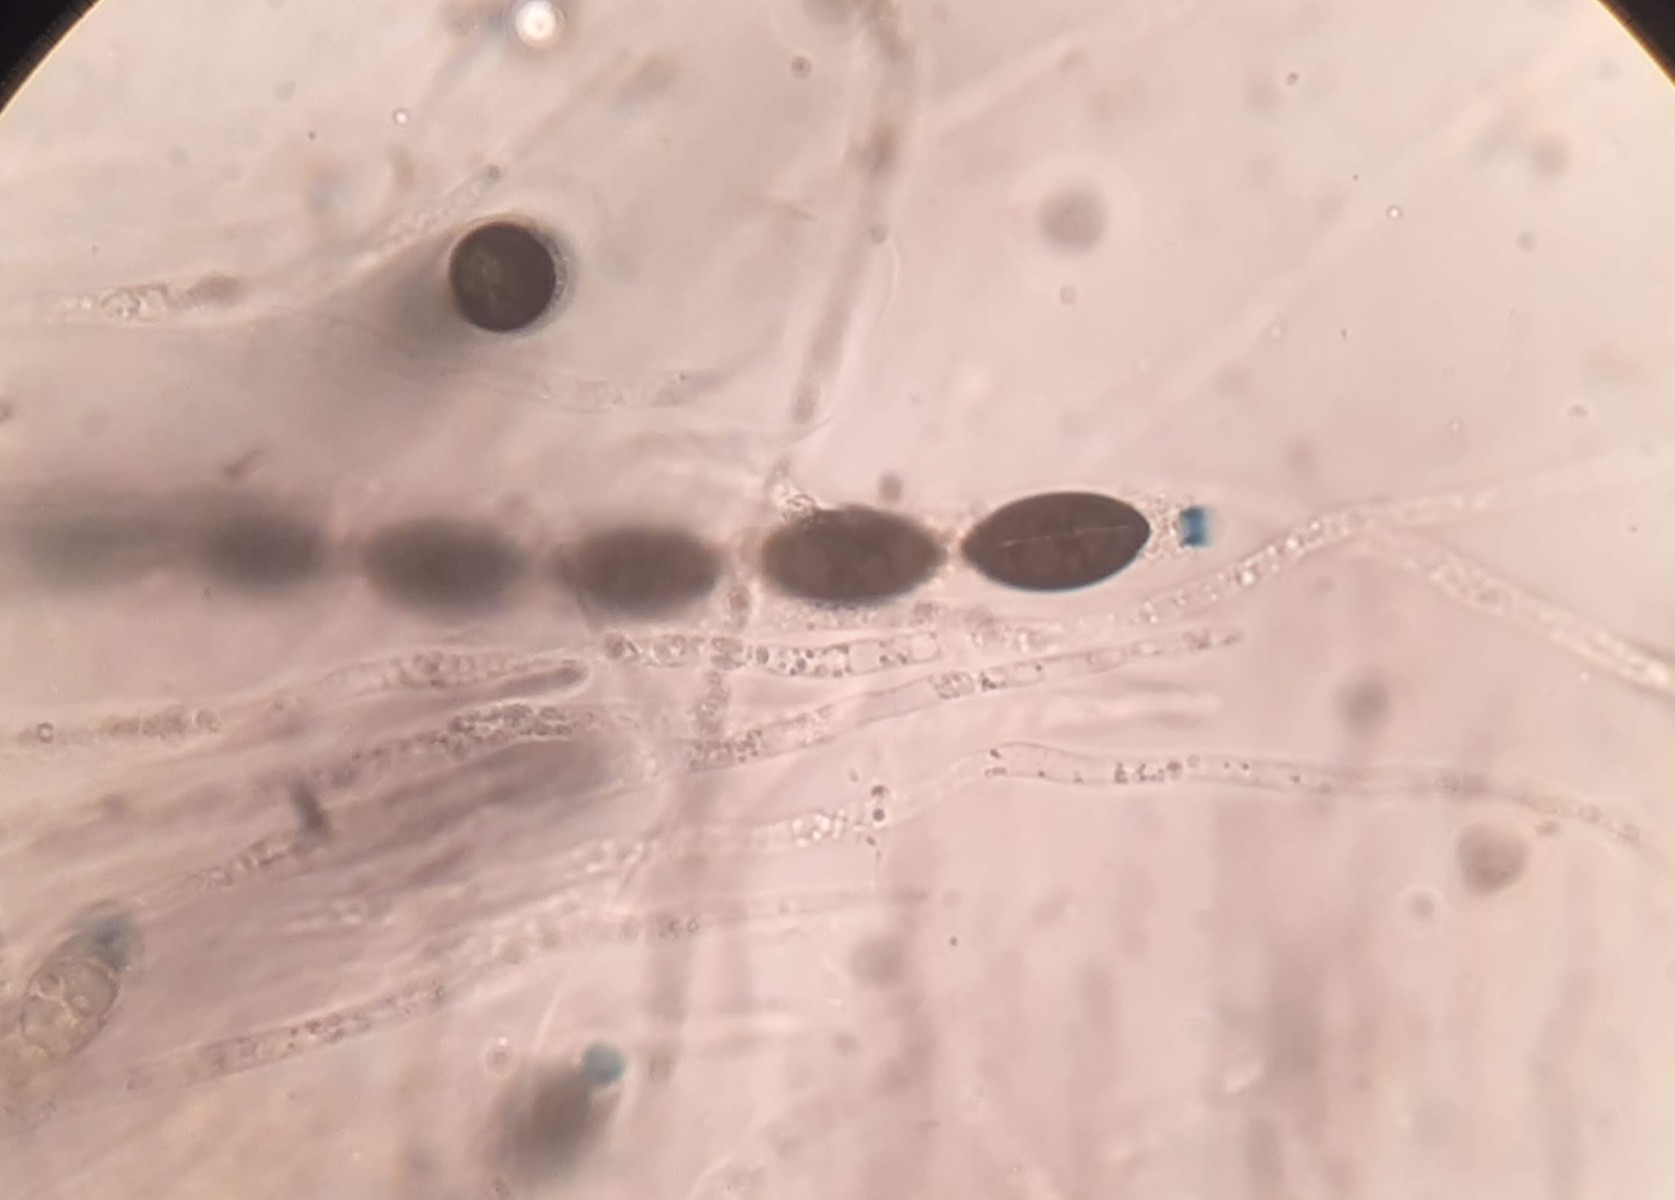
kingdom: Fungi
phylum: Ascomycota
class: Sordariomycetes
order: Xylariales
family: Xylariaceae
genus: Nemania
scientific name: Nemania confluens
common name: indsænket kuldyne
